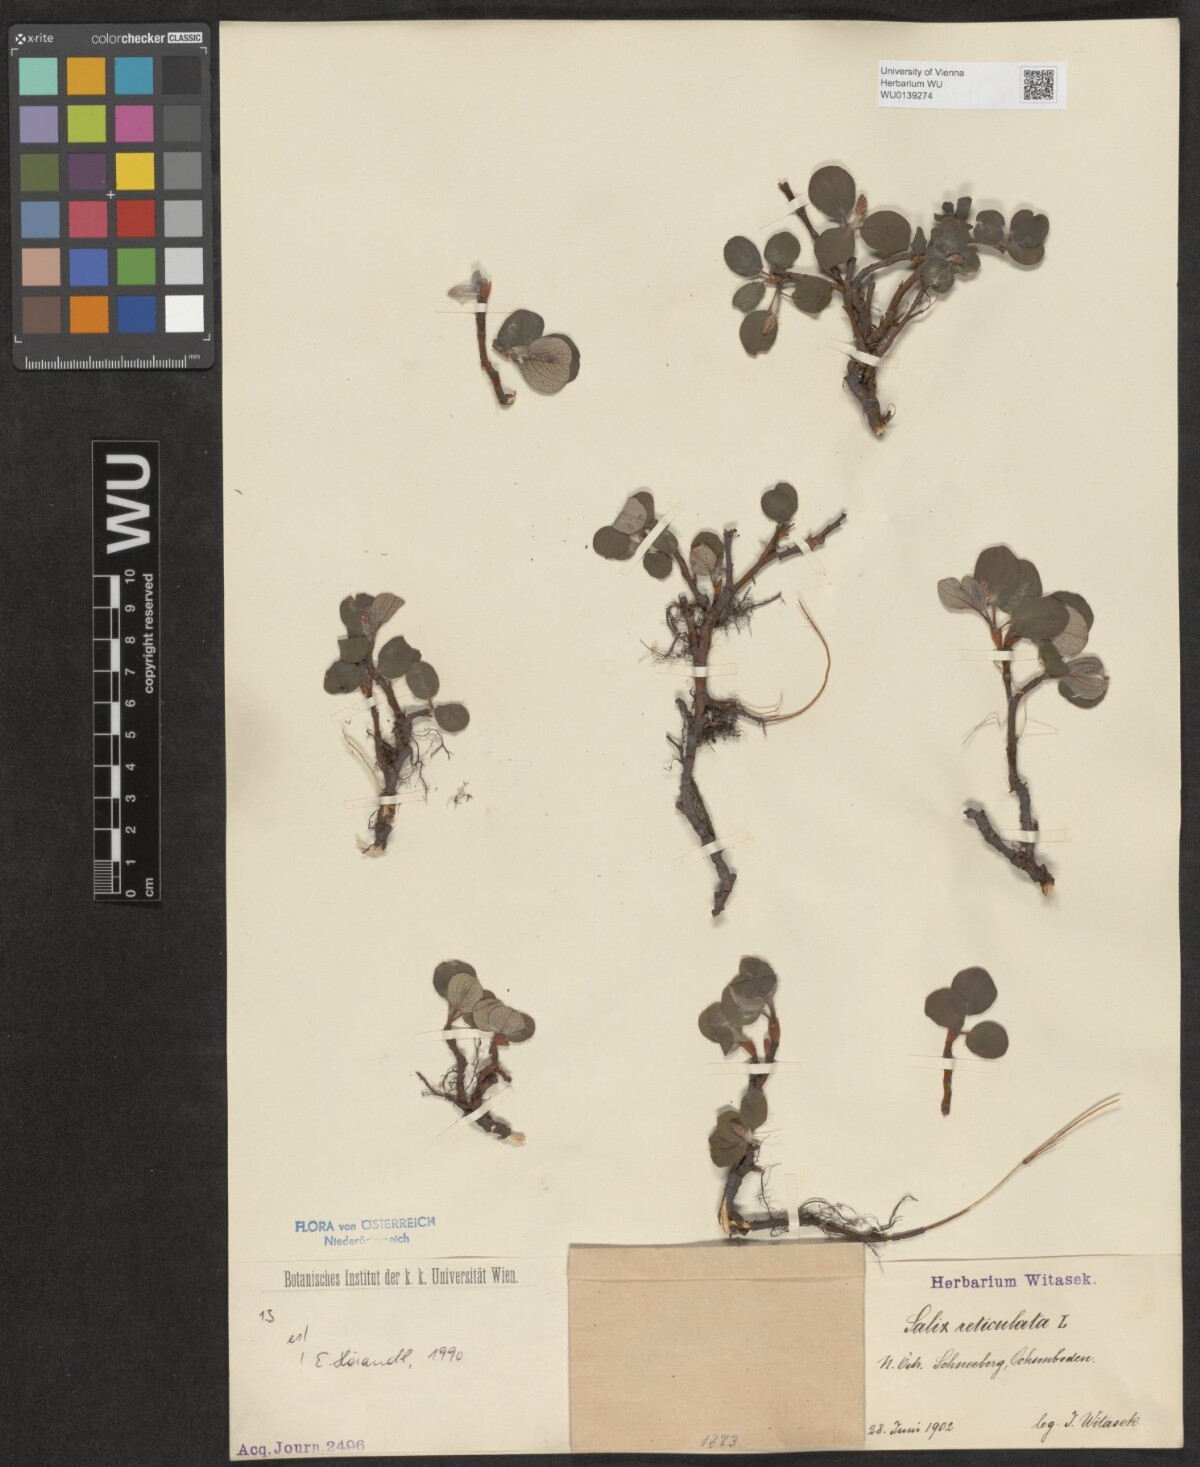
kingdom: Plantae
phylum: Tracheophyta
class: Magnoliopsida
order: Malpighiales
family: Salicaceae
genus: Salix
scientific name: Salix reticulata
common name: Net-leaved willow
